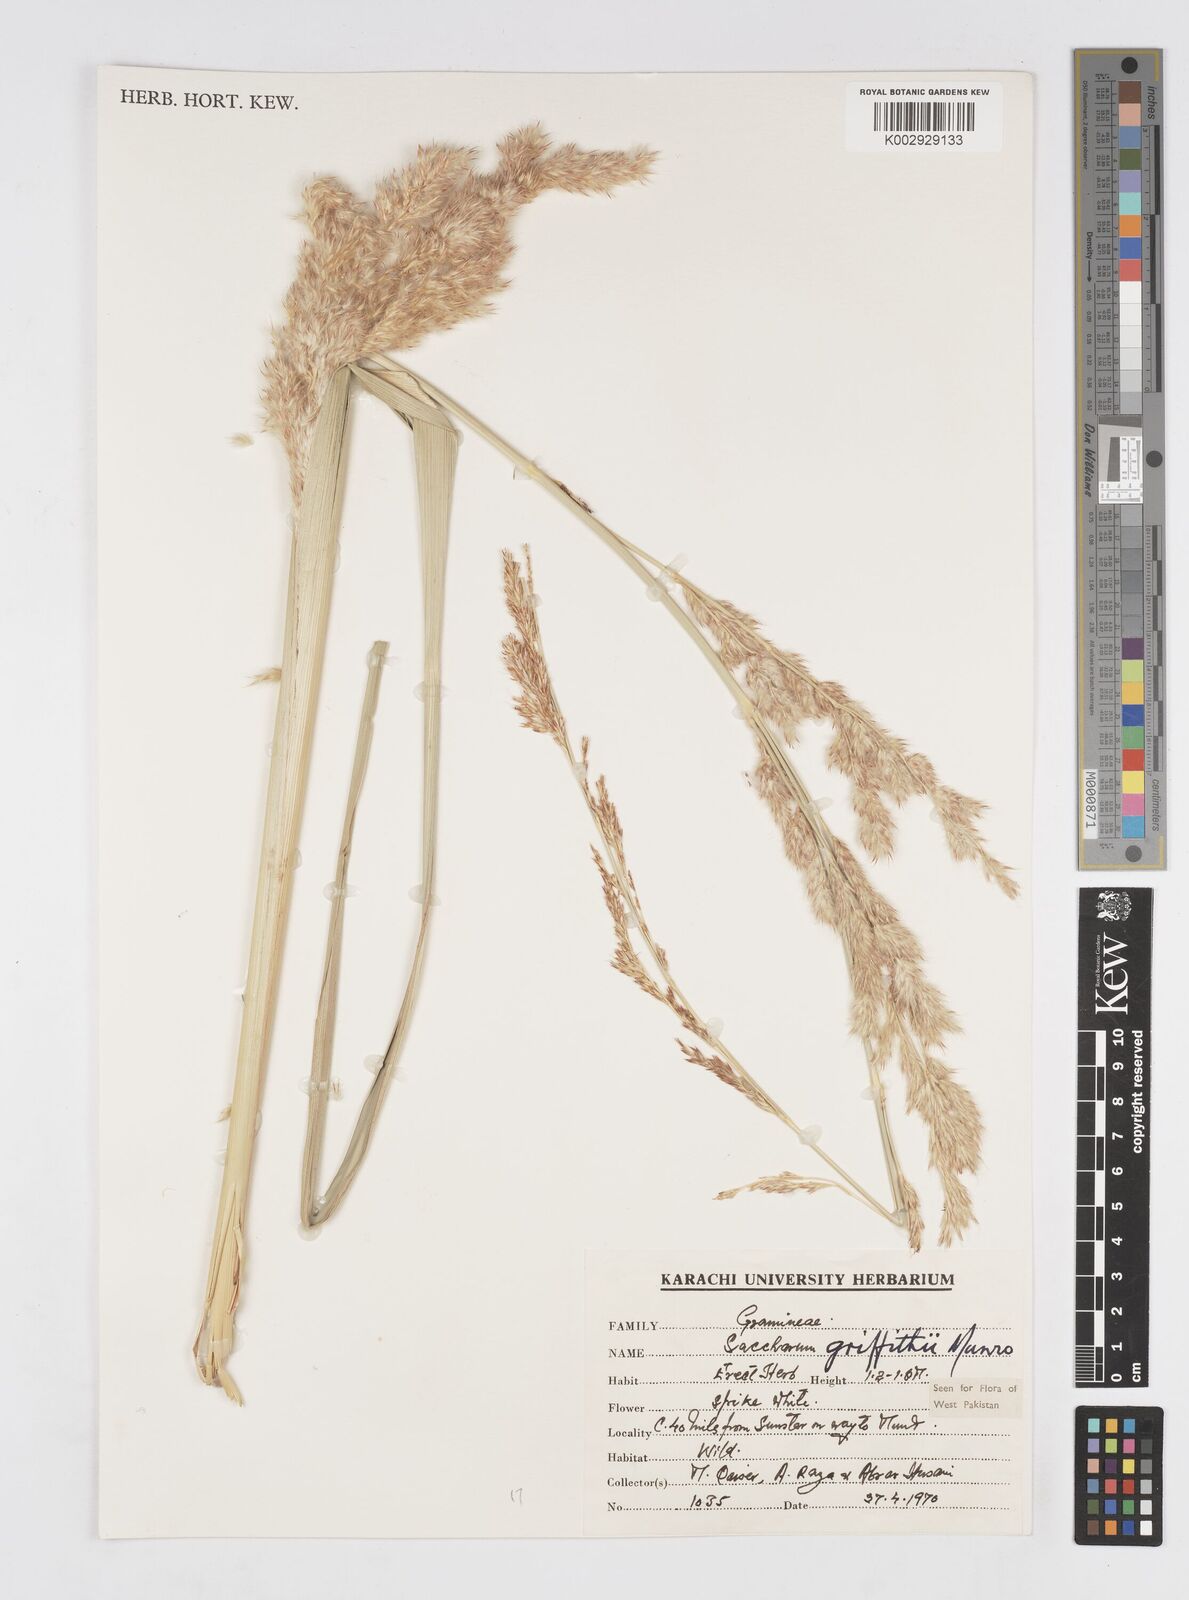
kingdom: Plantae
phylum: Tracheophyta
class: Liliopsida
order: Poales
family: Poaceae
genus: Saccharum
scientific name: Saccharum griffithii
